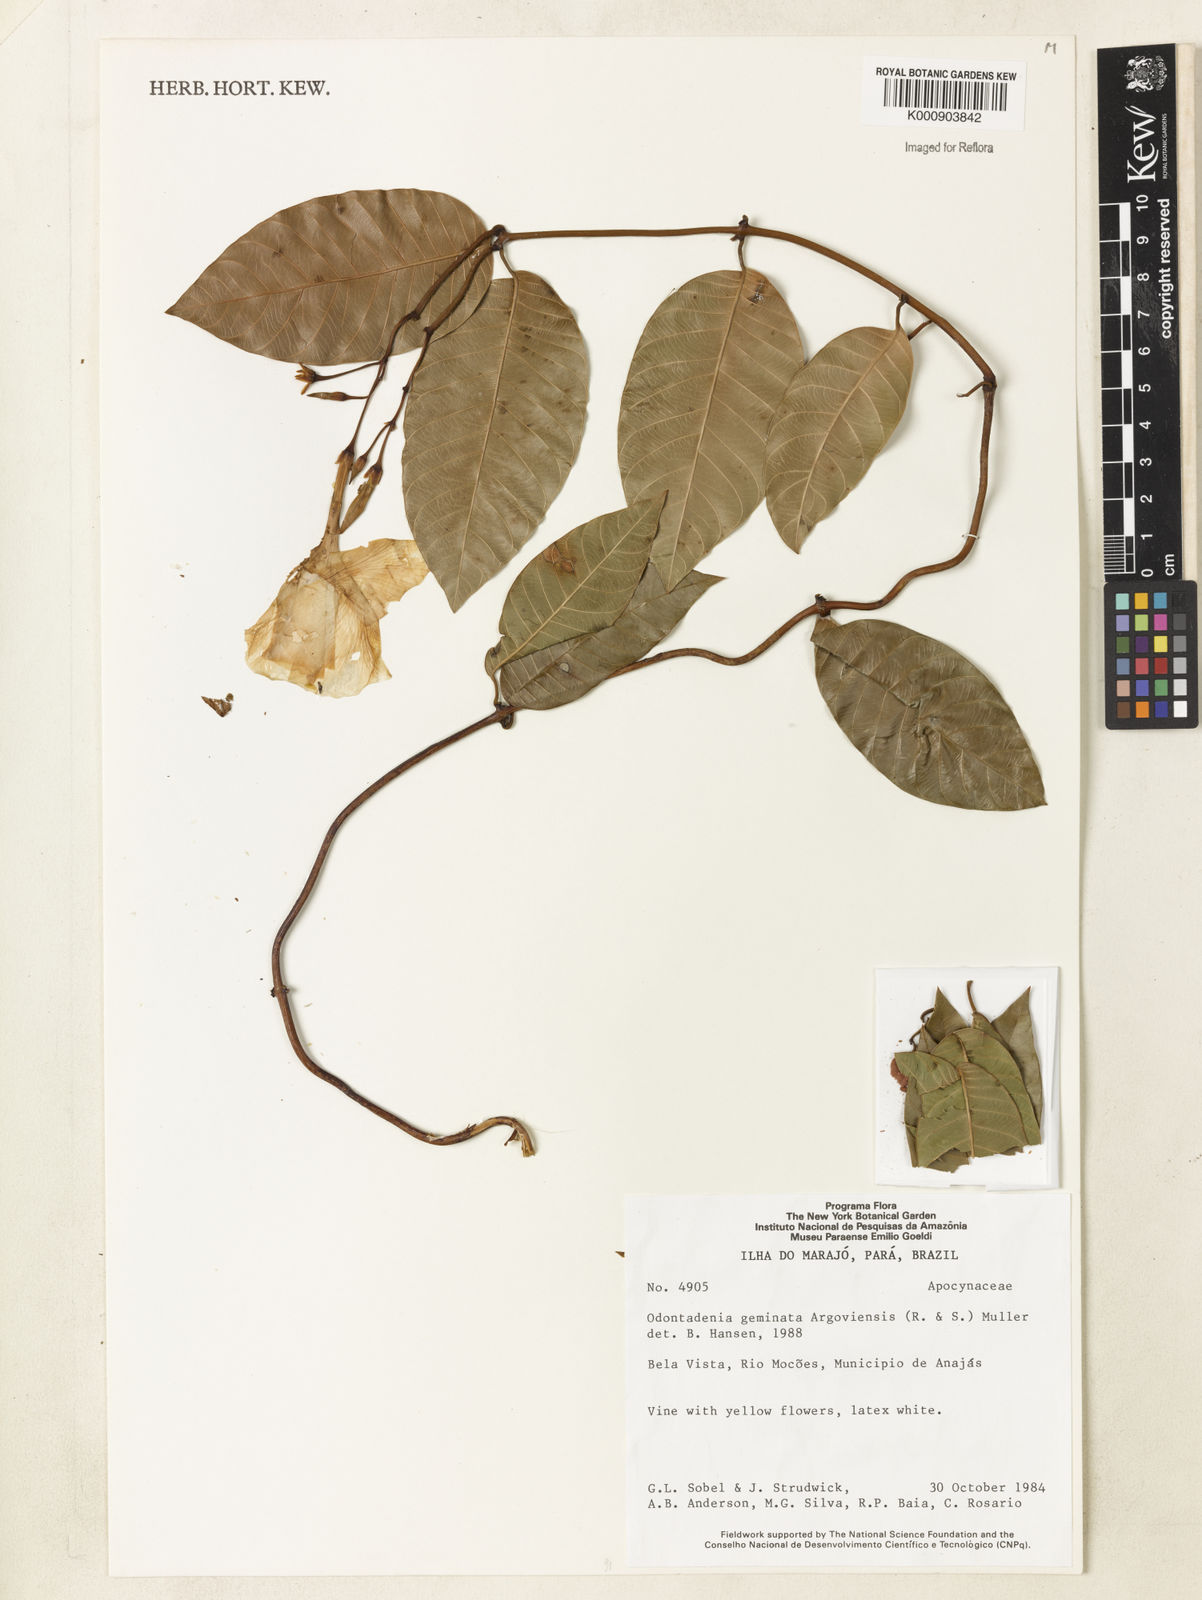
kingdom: Plantae
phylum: Tracheophyta
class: Magnoliopsida
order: Gentianales
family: Apocynaceae
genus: Odontadenia
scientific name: Odontadenia
